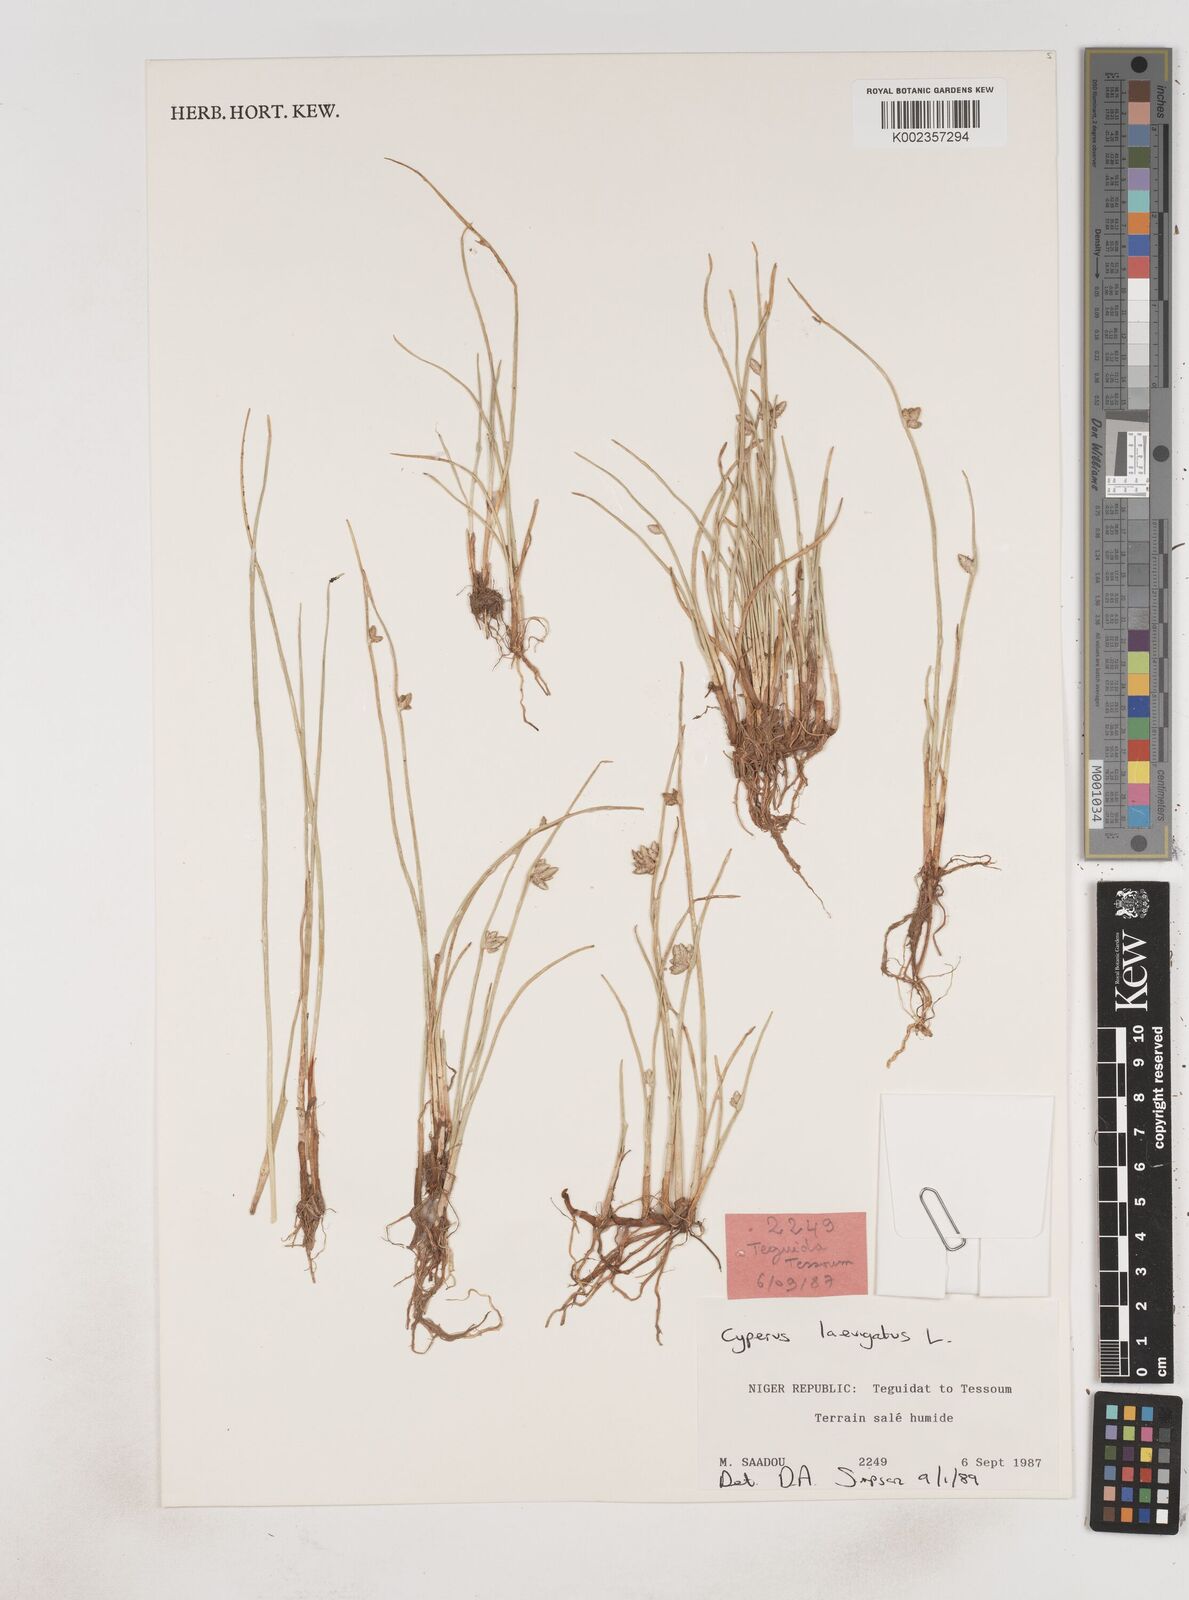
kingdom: Plantae
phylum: Tracheophyta
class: Liliopsida
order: Poales
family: Cyperaceae
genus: Cyperus
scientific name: Cyperus laevigatus
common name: Smooth flat sedge
